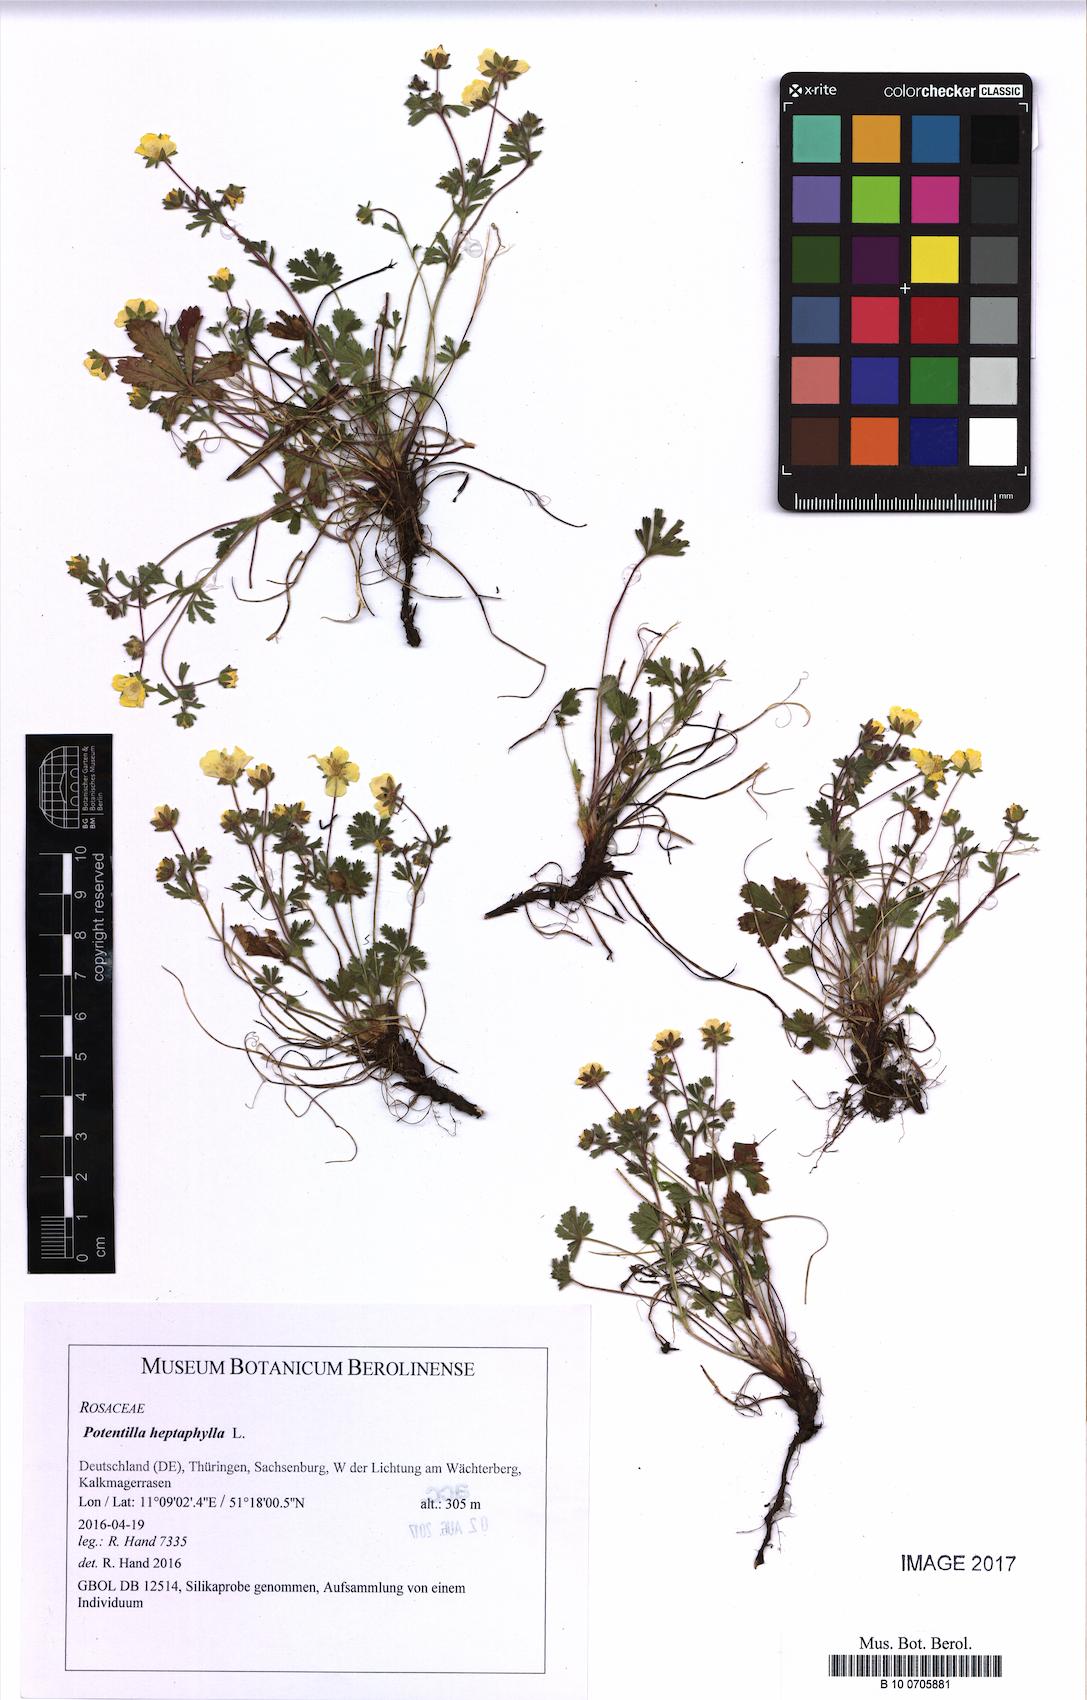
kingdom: Plantae
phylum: Tracheophyta
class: Magnoliopsida
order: Rosales
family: Rosaceae
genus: Potentilla
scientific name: Potentilla heptaphylla
